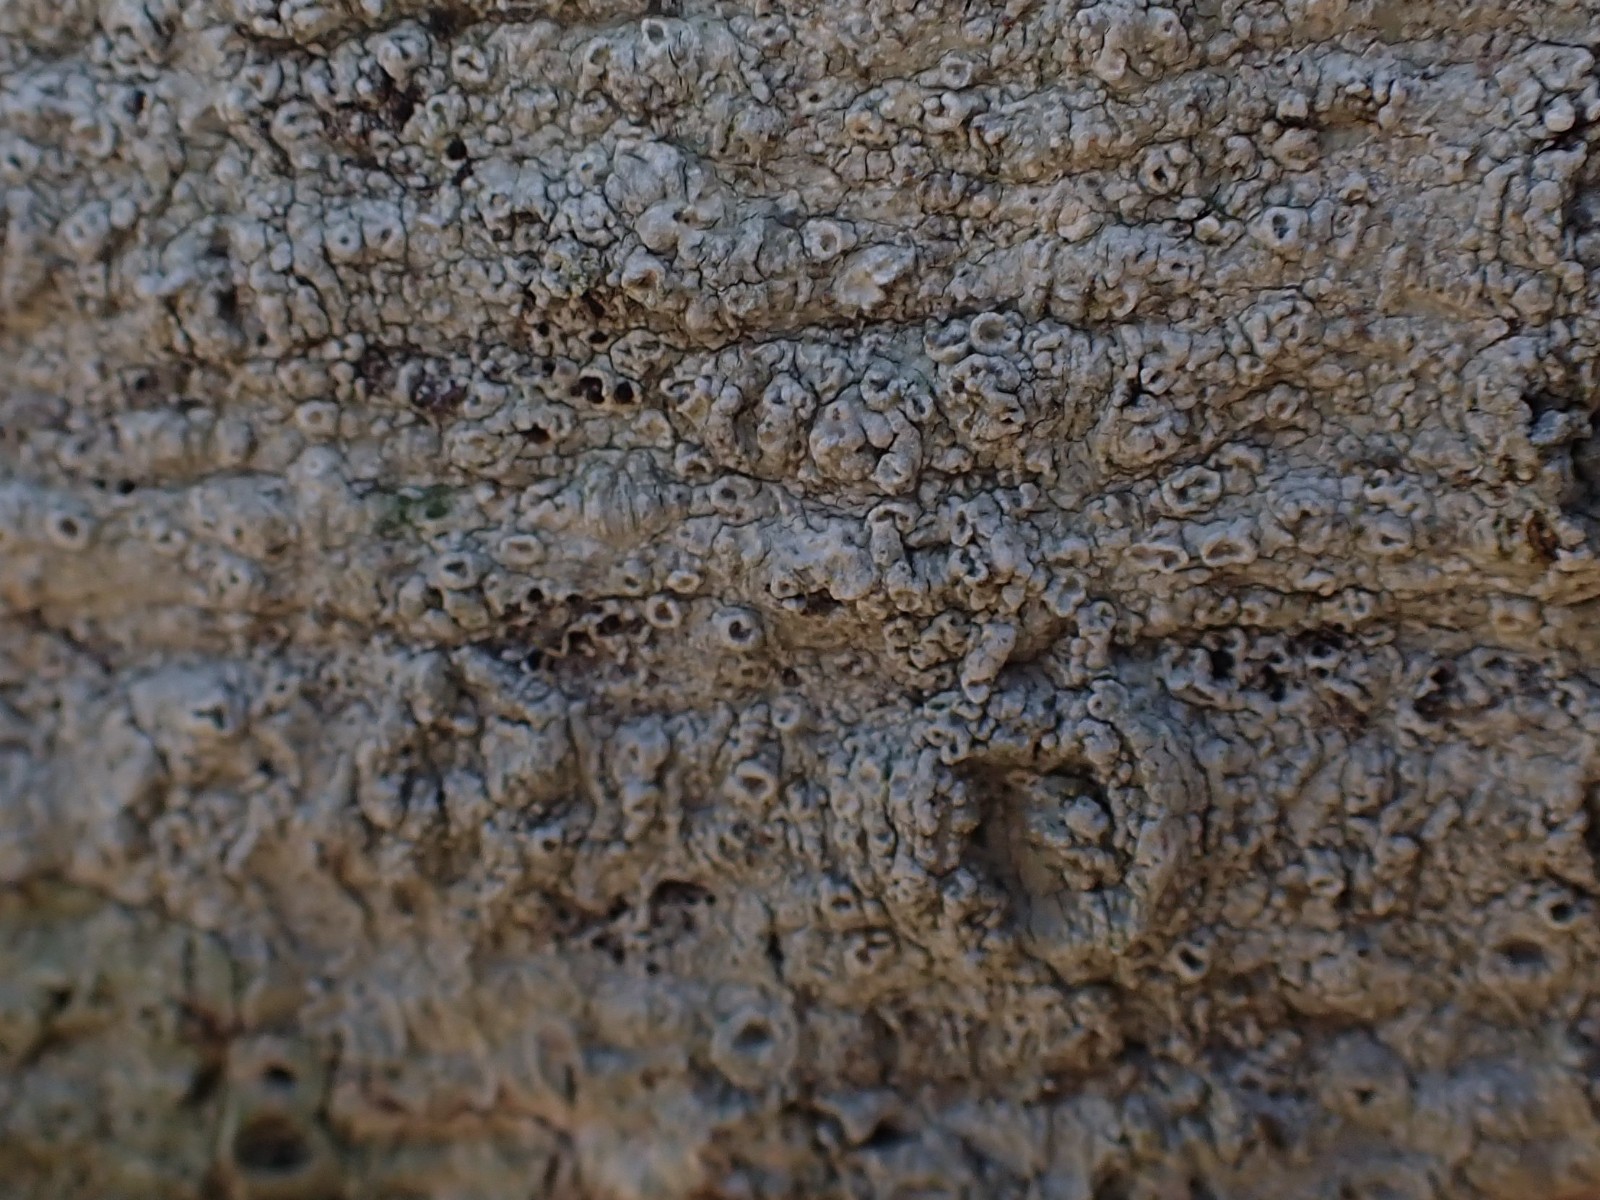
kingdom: Fungi
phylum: Ascomycota
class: Lecanoromycetes
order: Pertusariales
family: Pertusariaceae
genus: Pertusaria
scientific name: Pertusaria hymenea
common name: åben prikvortelav
